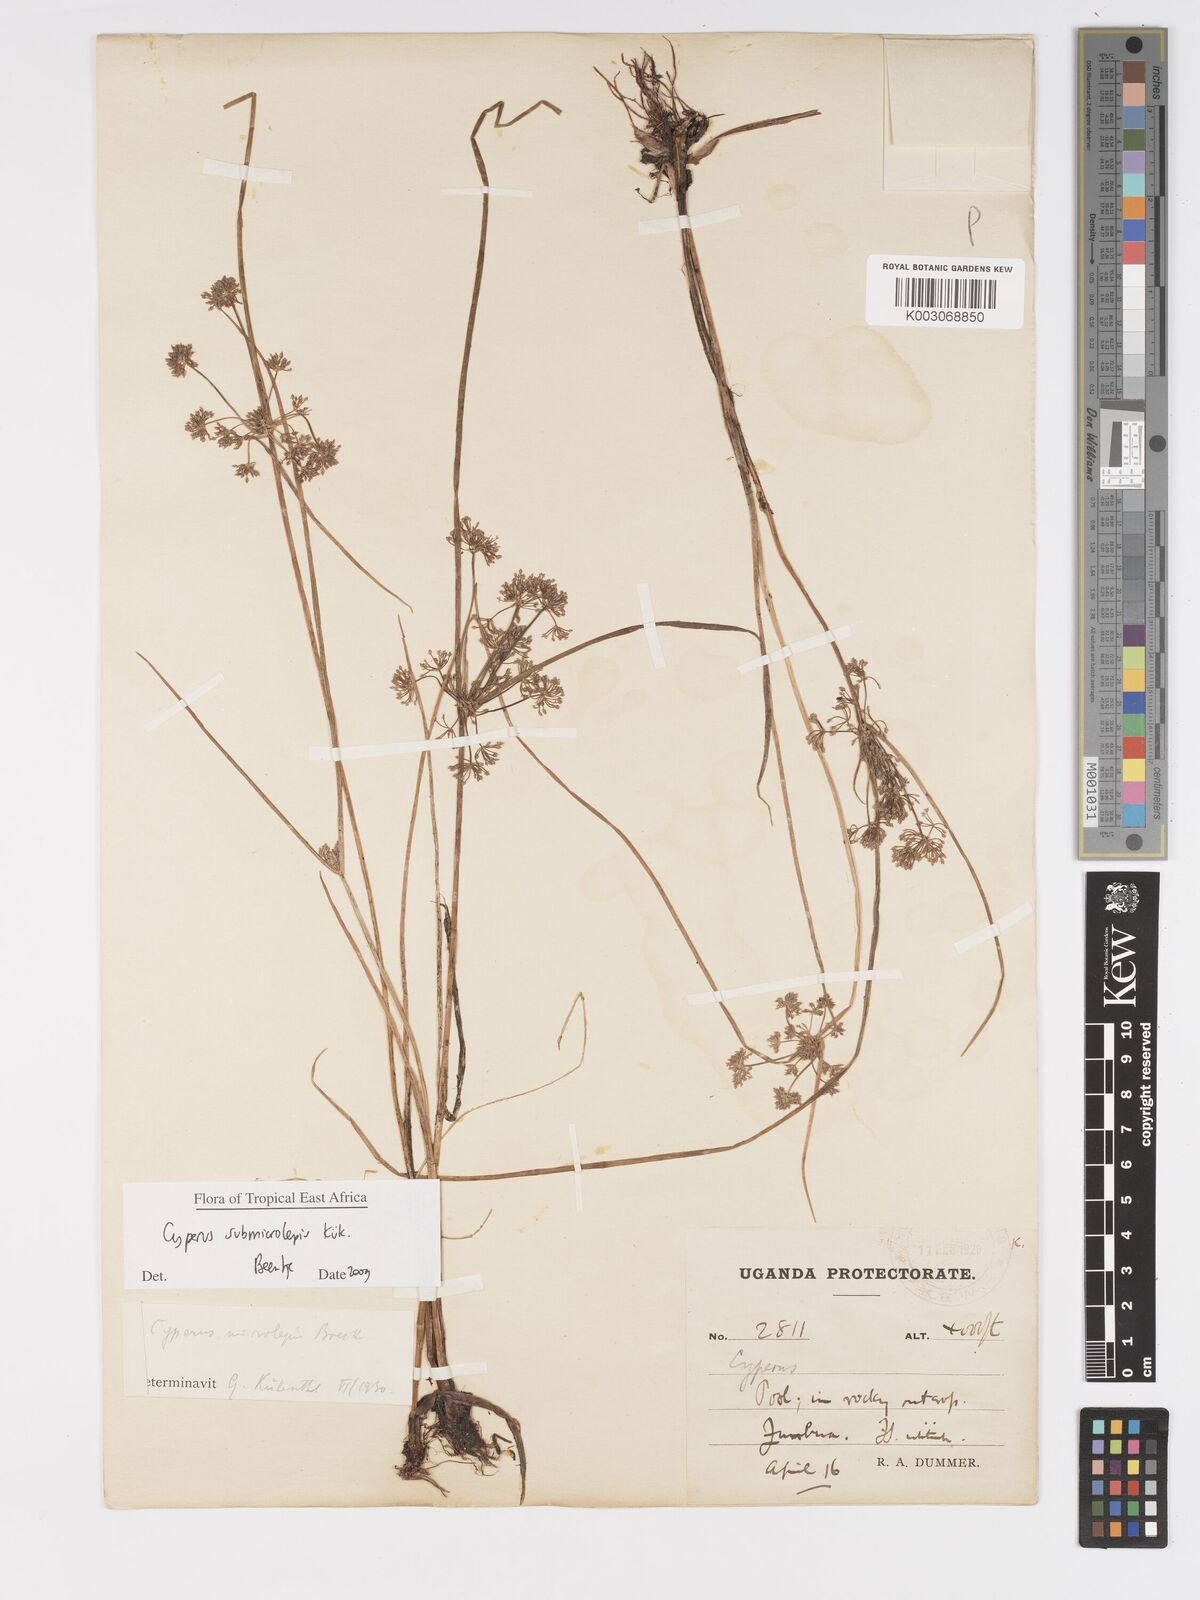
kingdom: Plantae
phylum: Tracheophyta
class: Liliopsida
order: Poales
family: Cyperaceae
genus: Cyperus
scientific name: Cyperus neoguinensis
